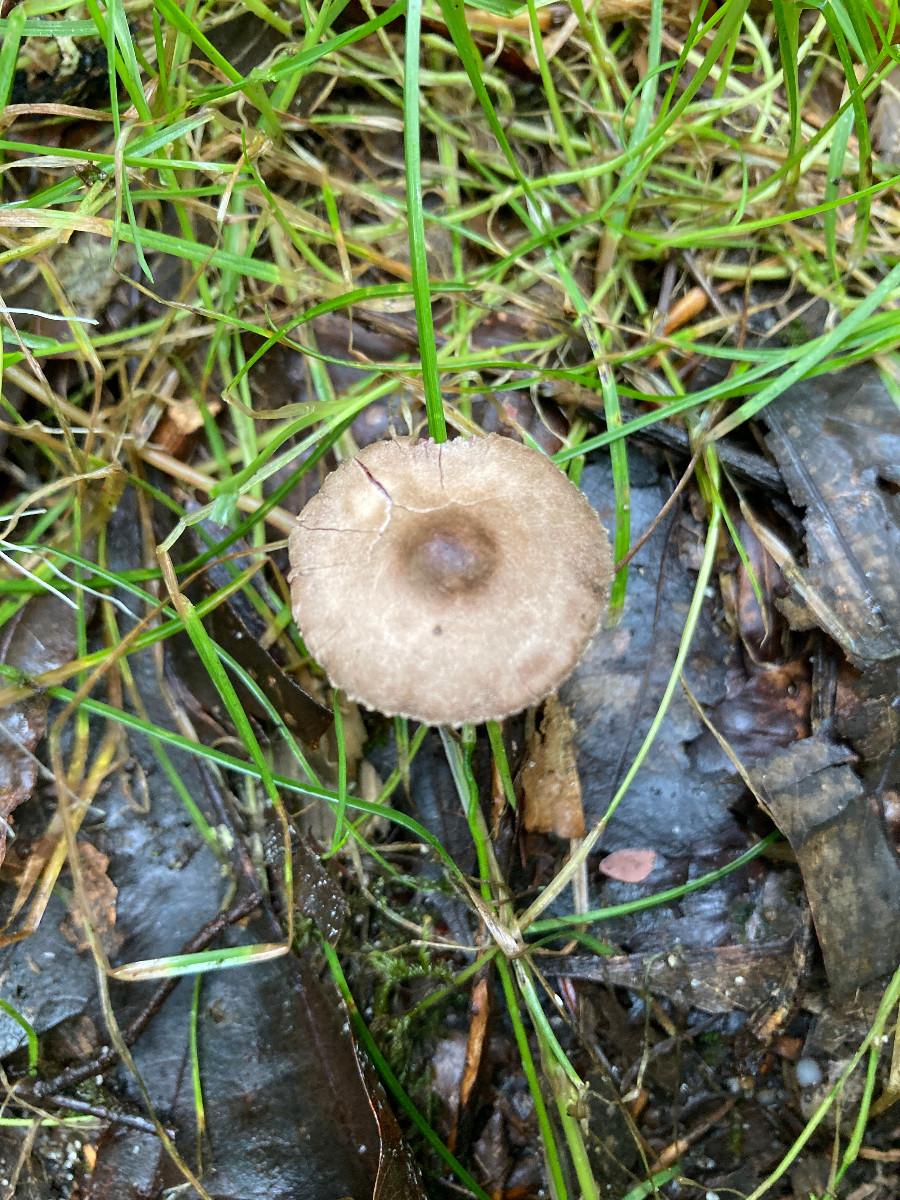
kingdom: Fungi
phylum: Basidiomycota
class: Agaricomycetes
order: Agaricales
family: Agaricaceae
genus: Melanophyllum
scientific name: Melanophyllum haematospermum
